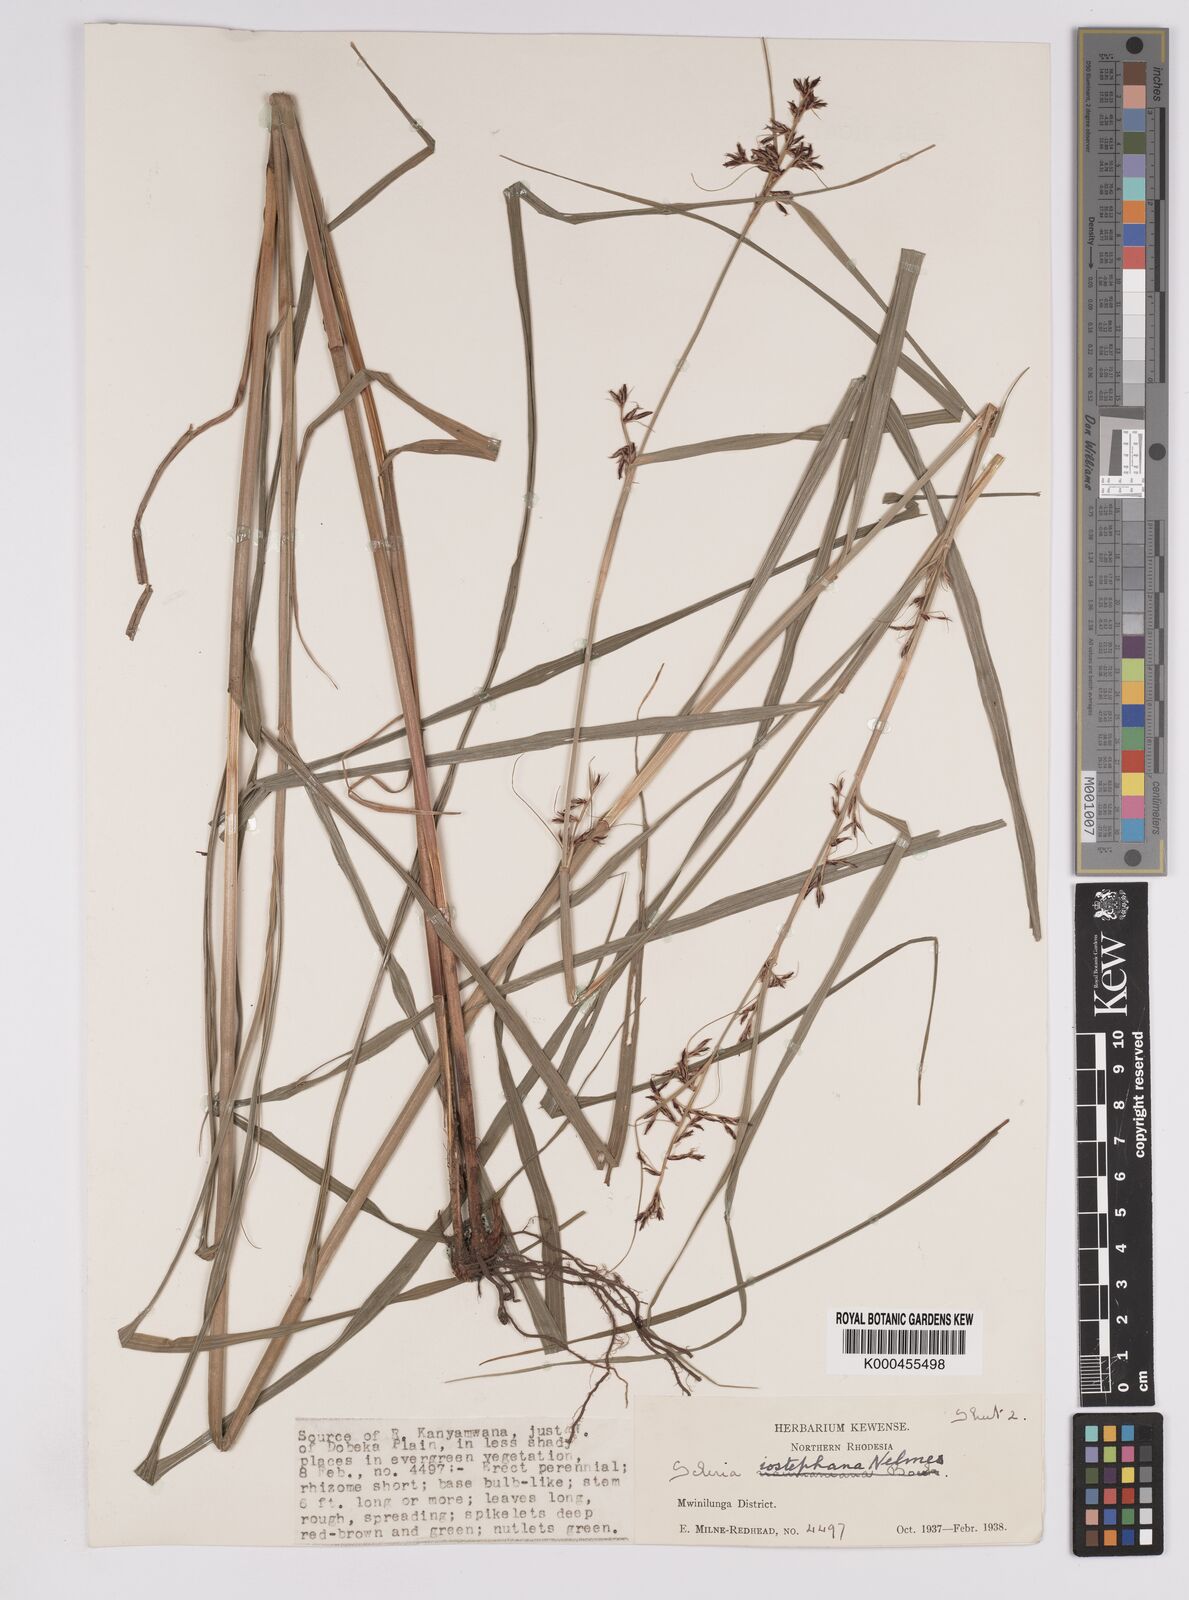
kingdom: Plantae
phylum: Tracheophyta
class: Liliopsida
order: Poales
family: Cyperaceae
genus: Scleria
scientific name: Scleria iostephana
